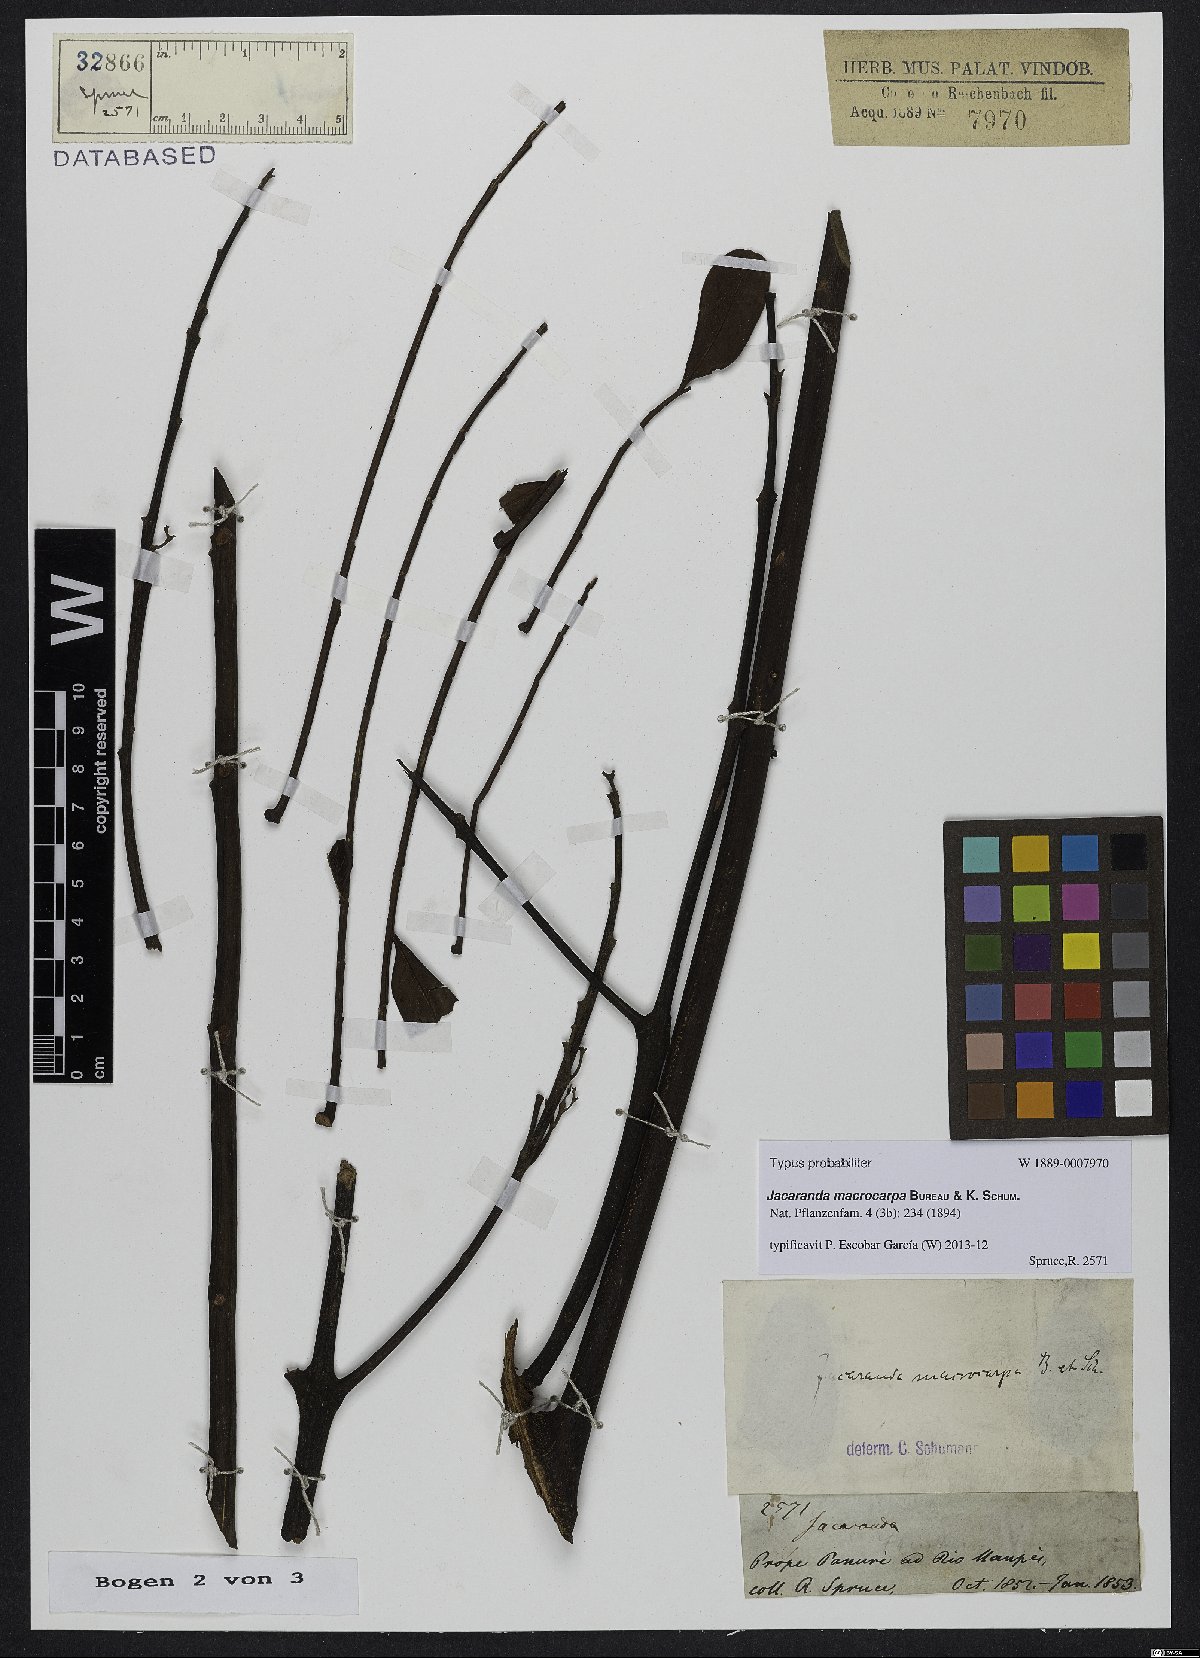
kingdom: Plantae
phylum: Tracheophyta
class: Magnoliopsida
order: Lamiales
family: Bignoniaceae
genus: Jacaranda
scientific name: Jacaranda macrocarpa
